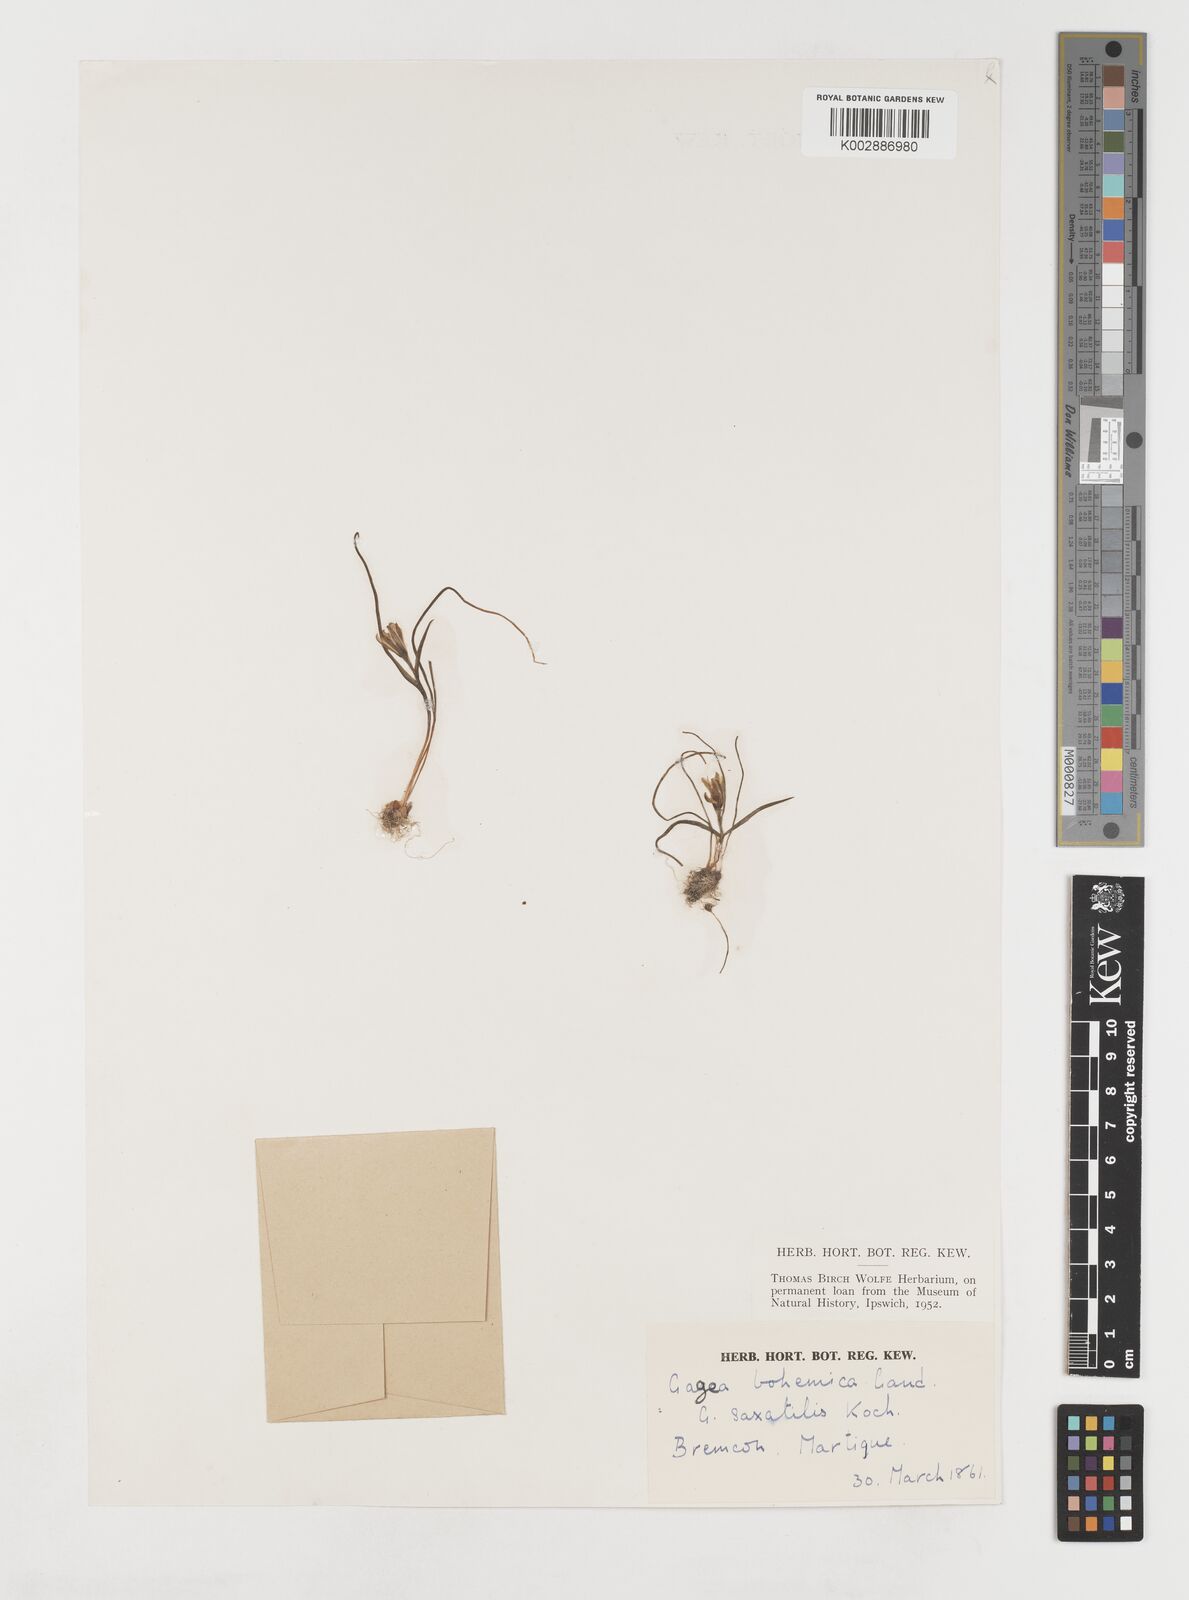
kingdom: Plantae
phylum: Tracheophyta
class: Liliopsida
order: Liliales
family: Liliaceae
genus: Gagea
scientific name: Gagea bohemica
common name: Early star-of-bethlehem
